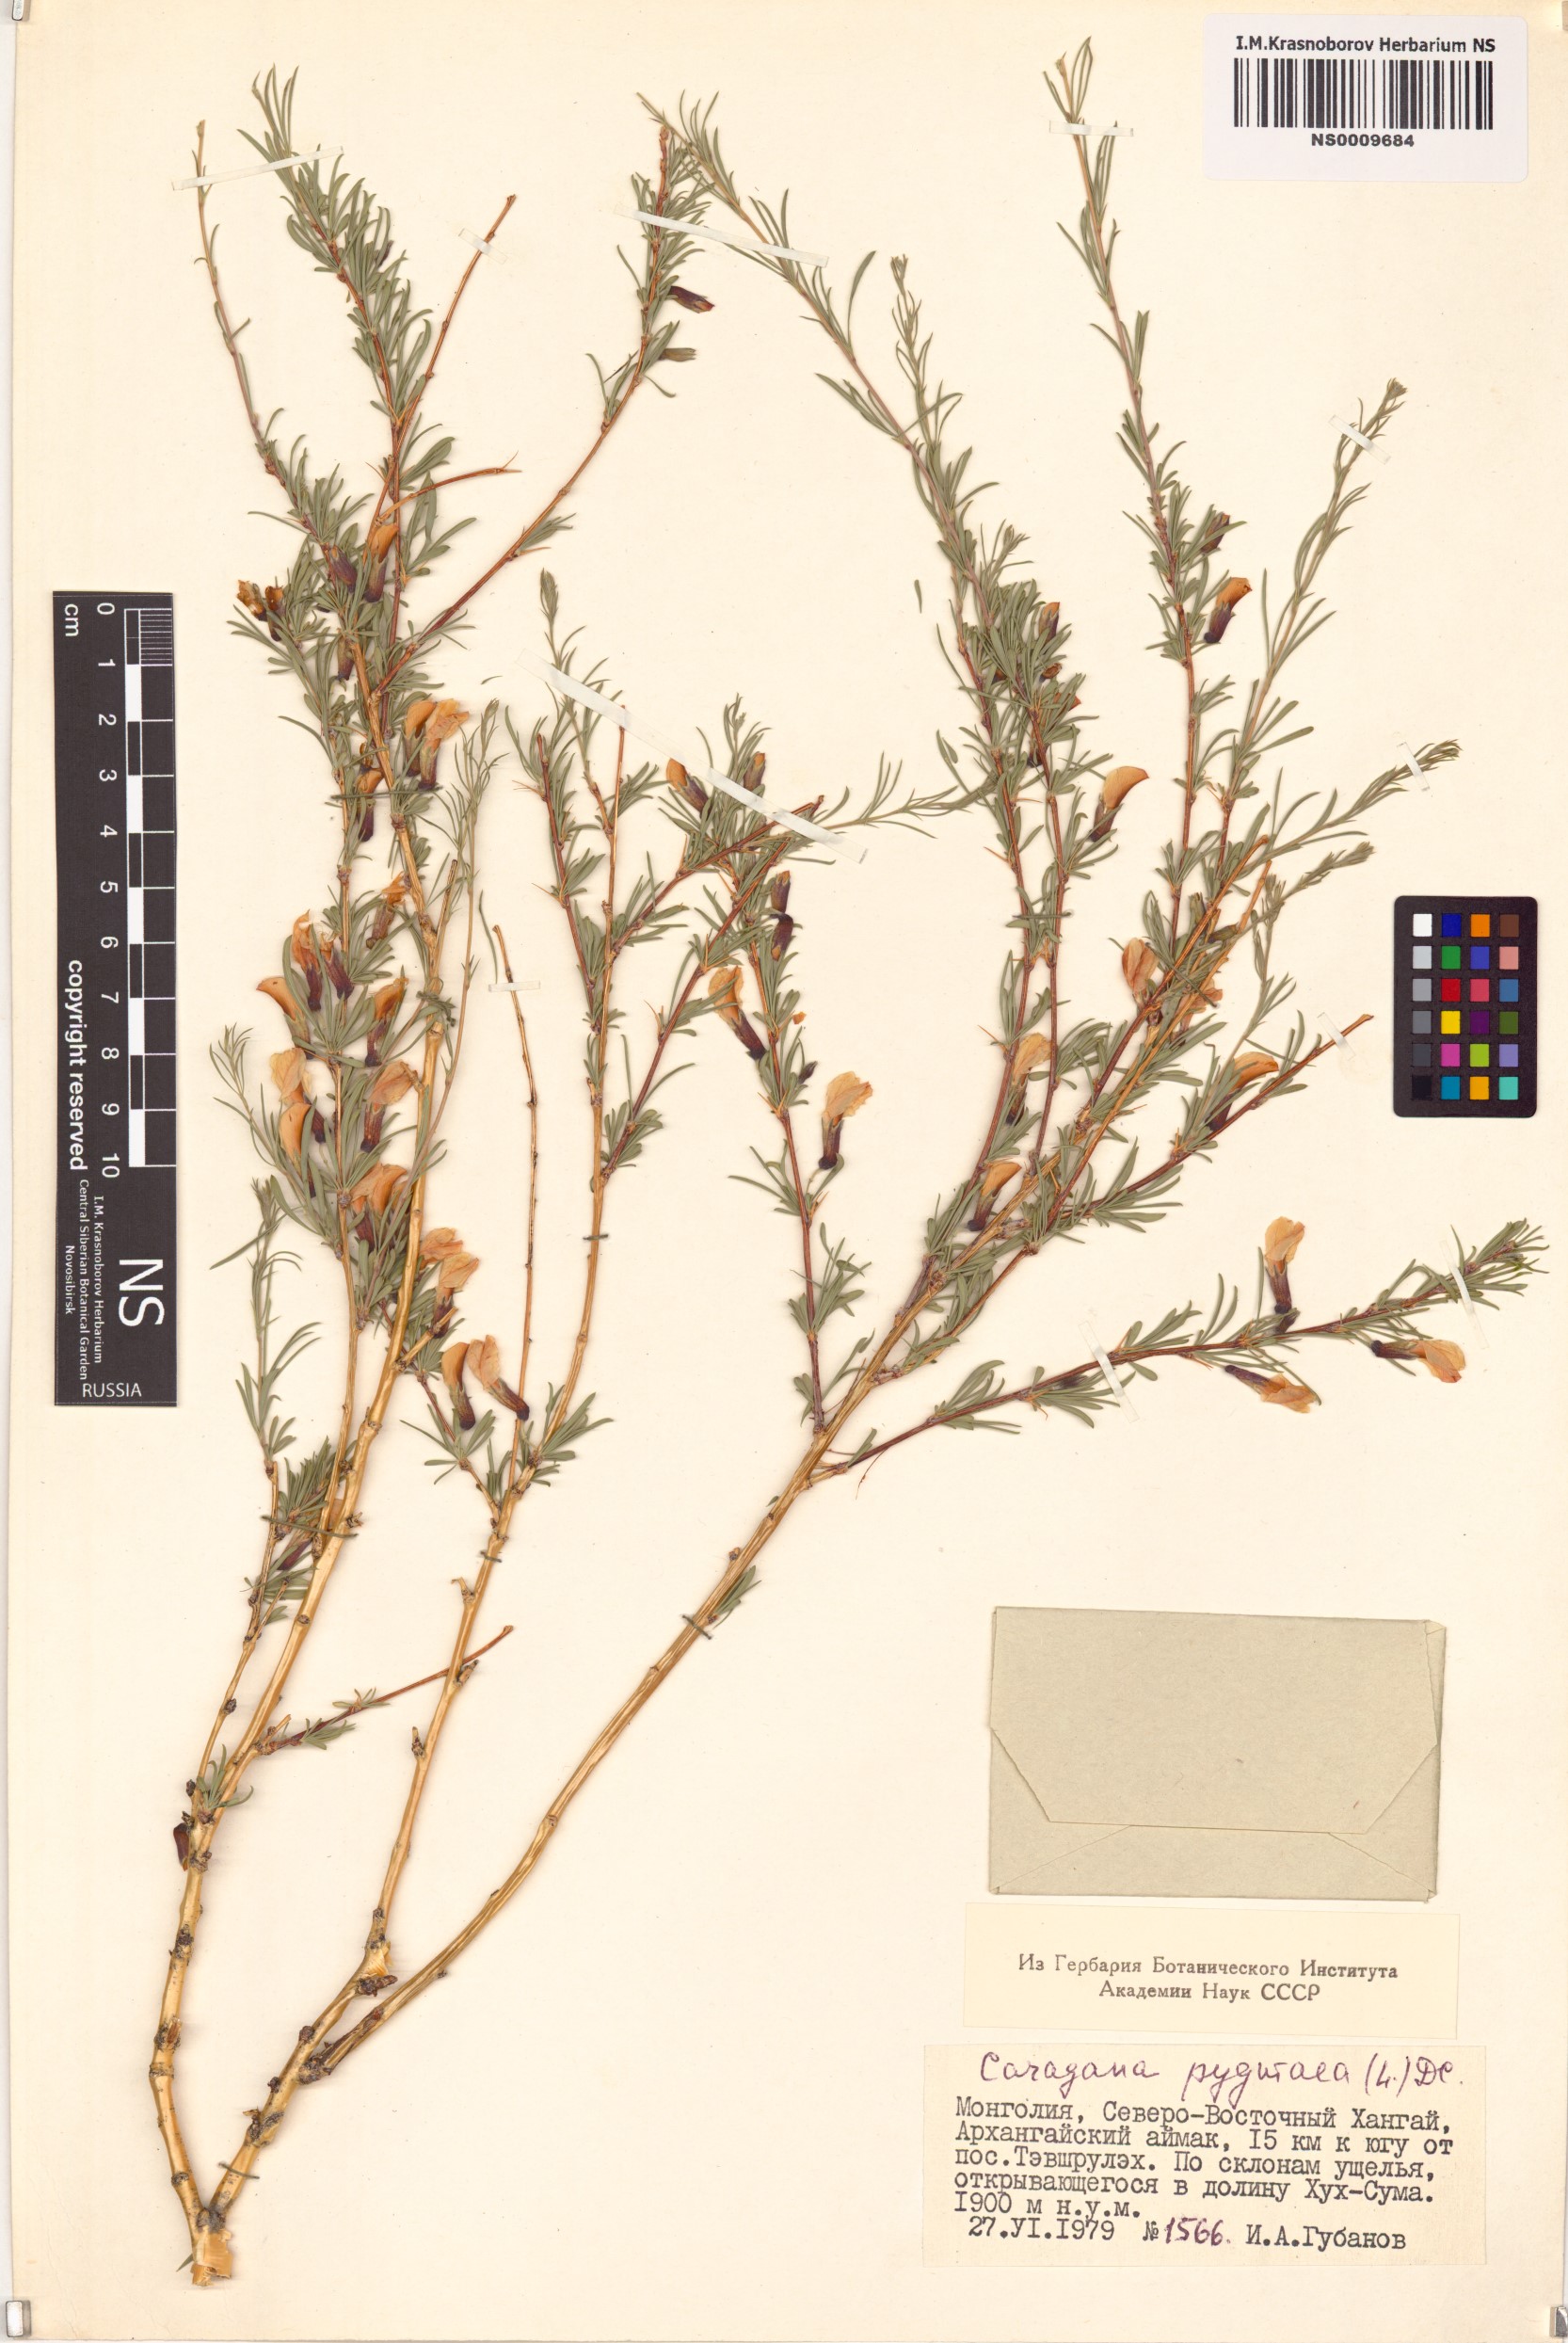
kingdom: Plantae
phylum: Tracheophyta
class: Magnoliopsida
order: Fabales
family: Fabaceae
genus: Caragana
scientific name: Caragana pygmaea
